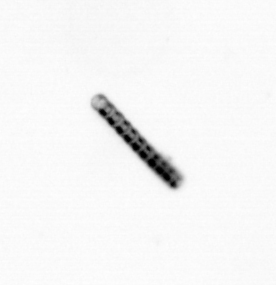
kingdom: Chromista
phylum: Ochrophyta
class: Bacillariophyceae
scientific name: Bacillariophyceae
